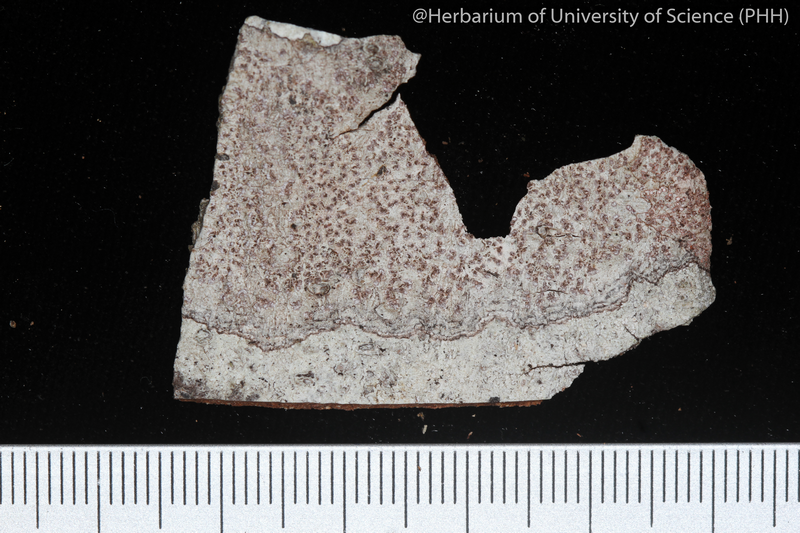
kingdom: Fungi
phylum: Ascomycota
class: Arthoniomycetes
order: Arthoniales
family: Arthoniaceae
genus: Arthonia
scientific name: Arthonia
